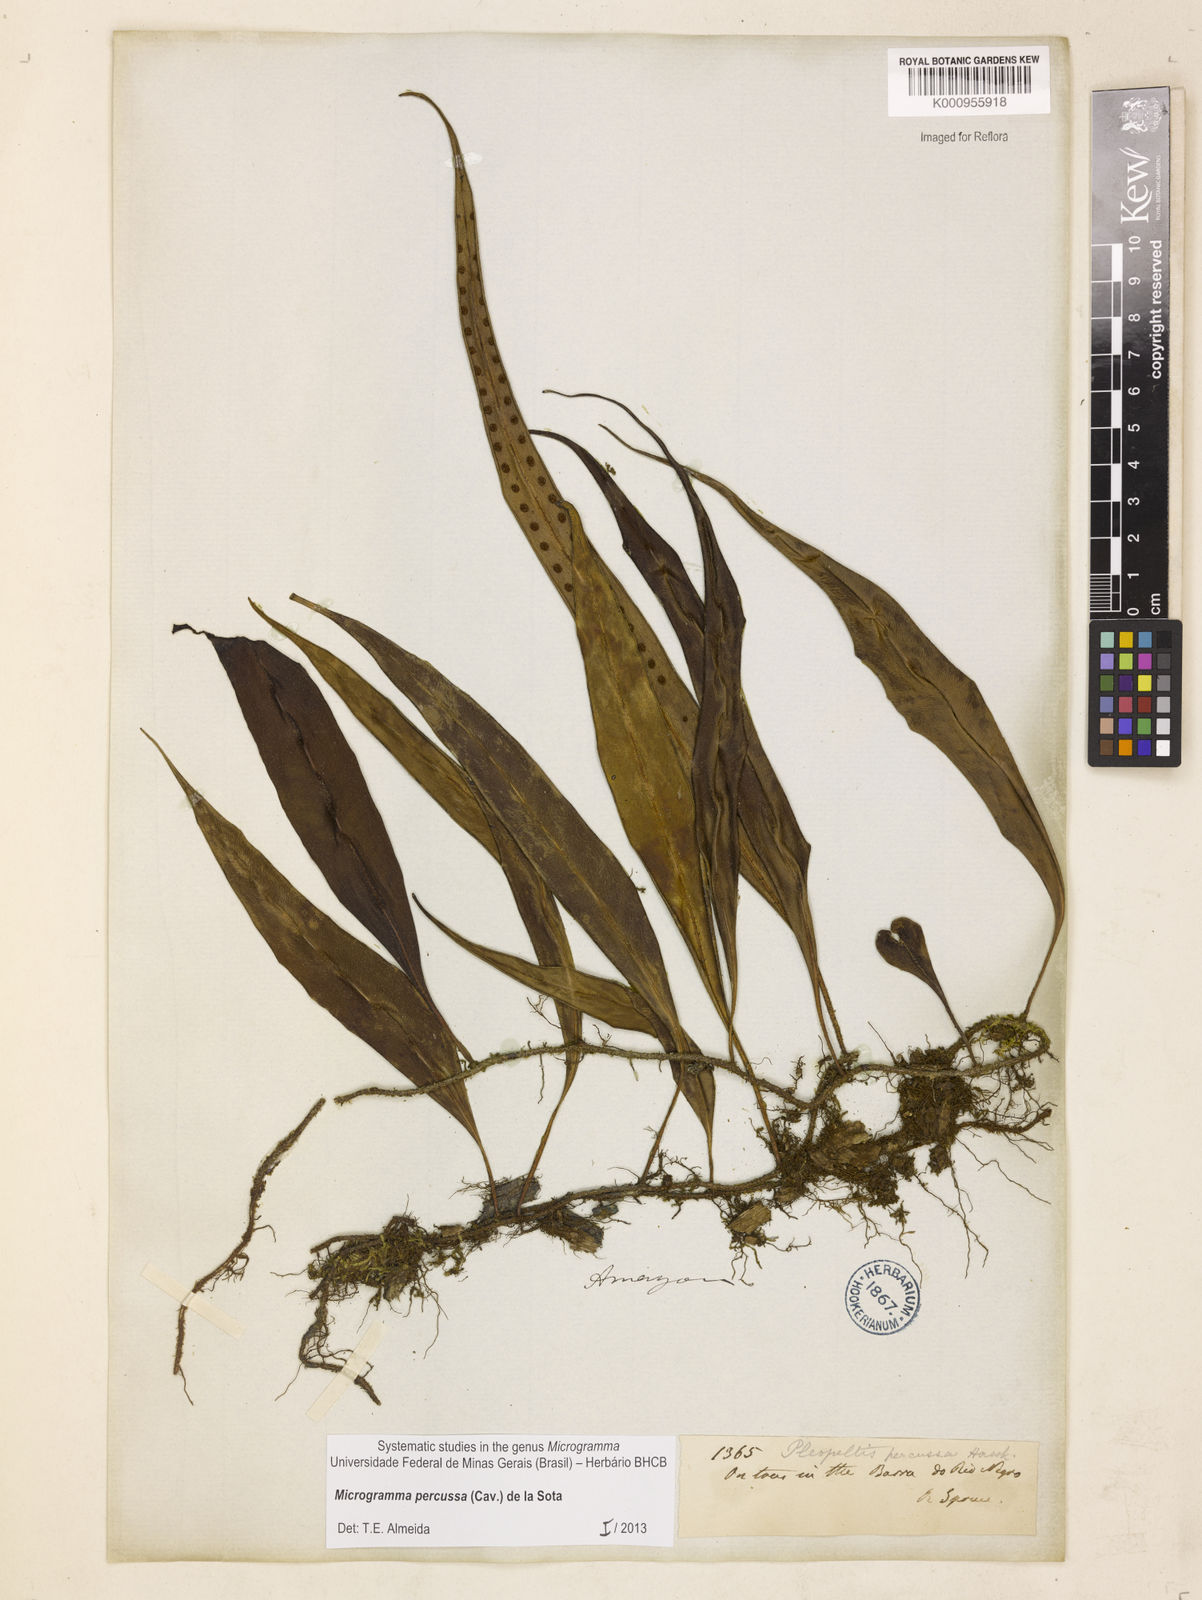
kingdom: Plantae
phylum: Tracheophyta
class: Polypodiopsida
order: Polypodiales
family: Polypodiaceae
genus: Microgramma
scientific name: Microgramma percussa
